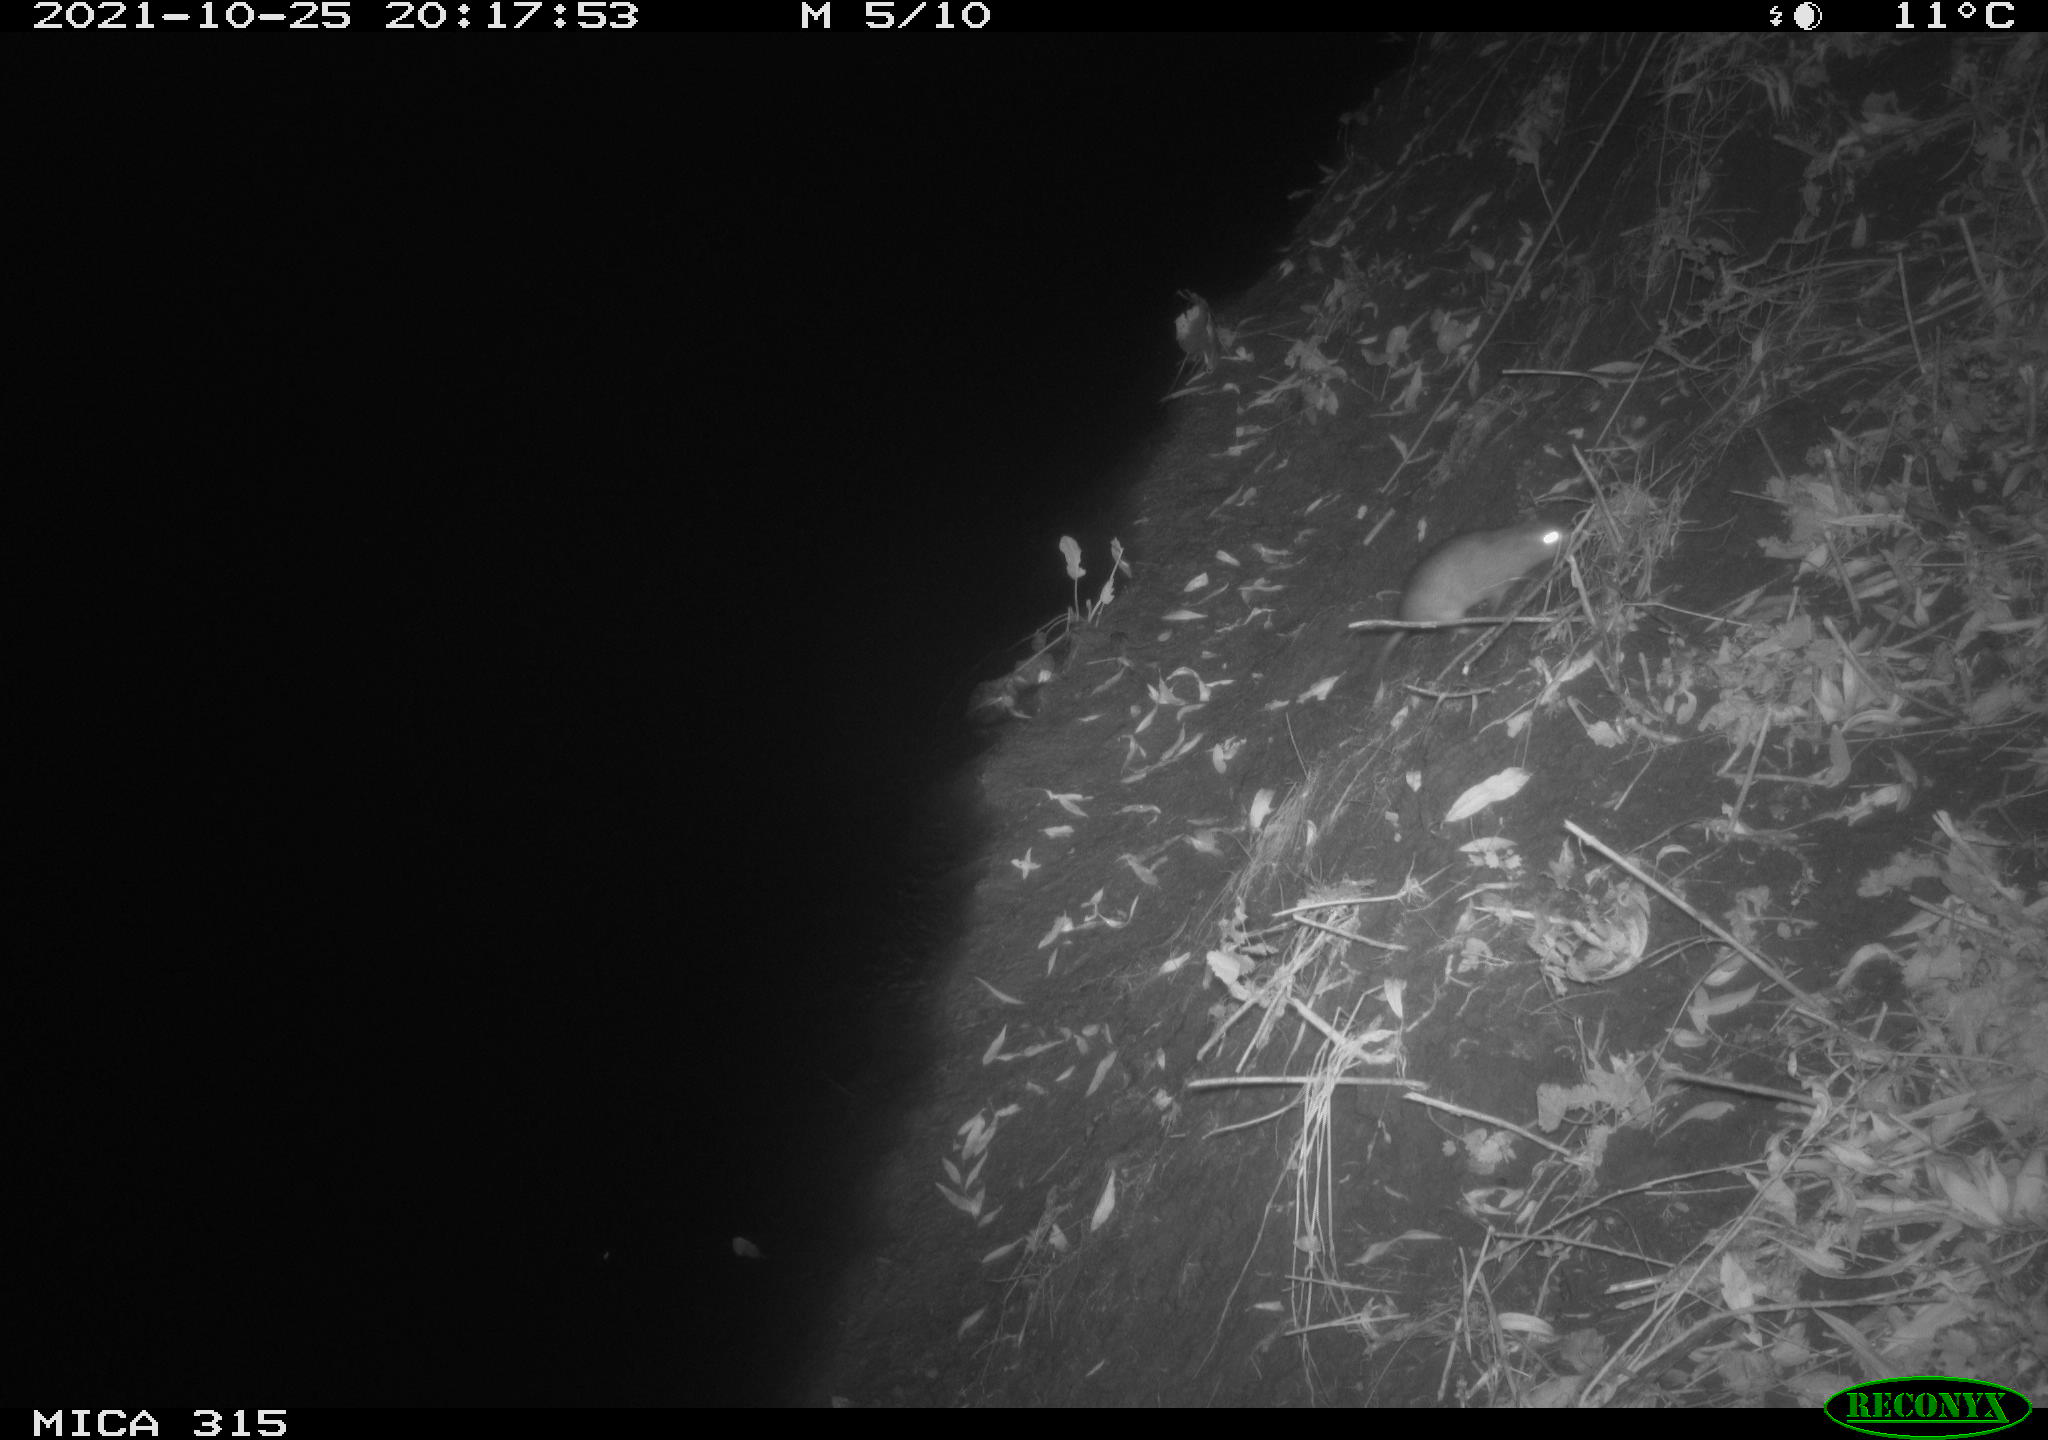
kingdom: Animalia
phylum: Chordata
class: Mammalia
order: Rodentia
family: Muridae
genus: Rattus
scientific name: Rattus norvegicus
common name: Brown rat
